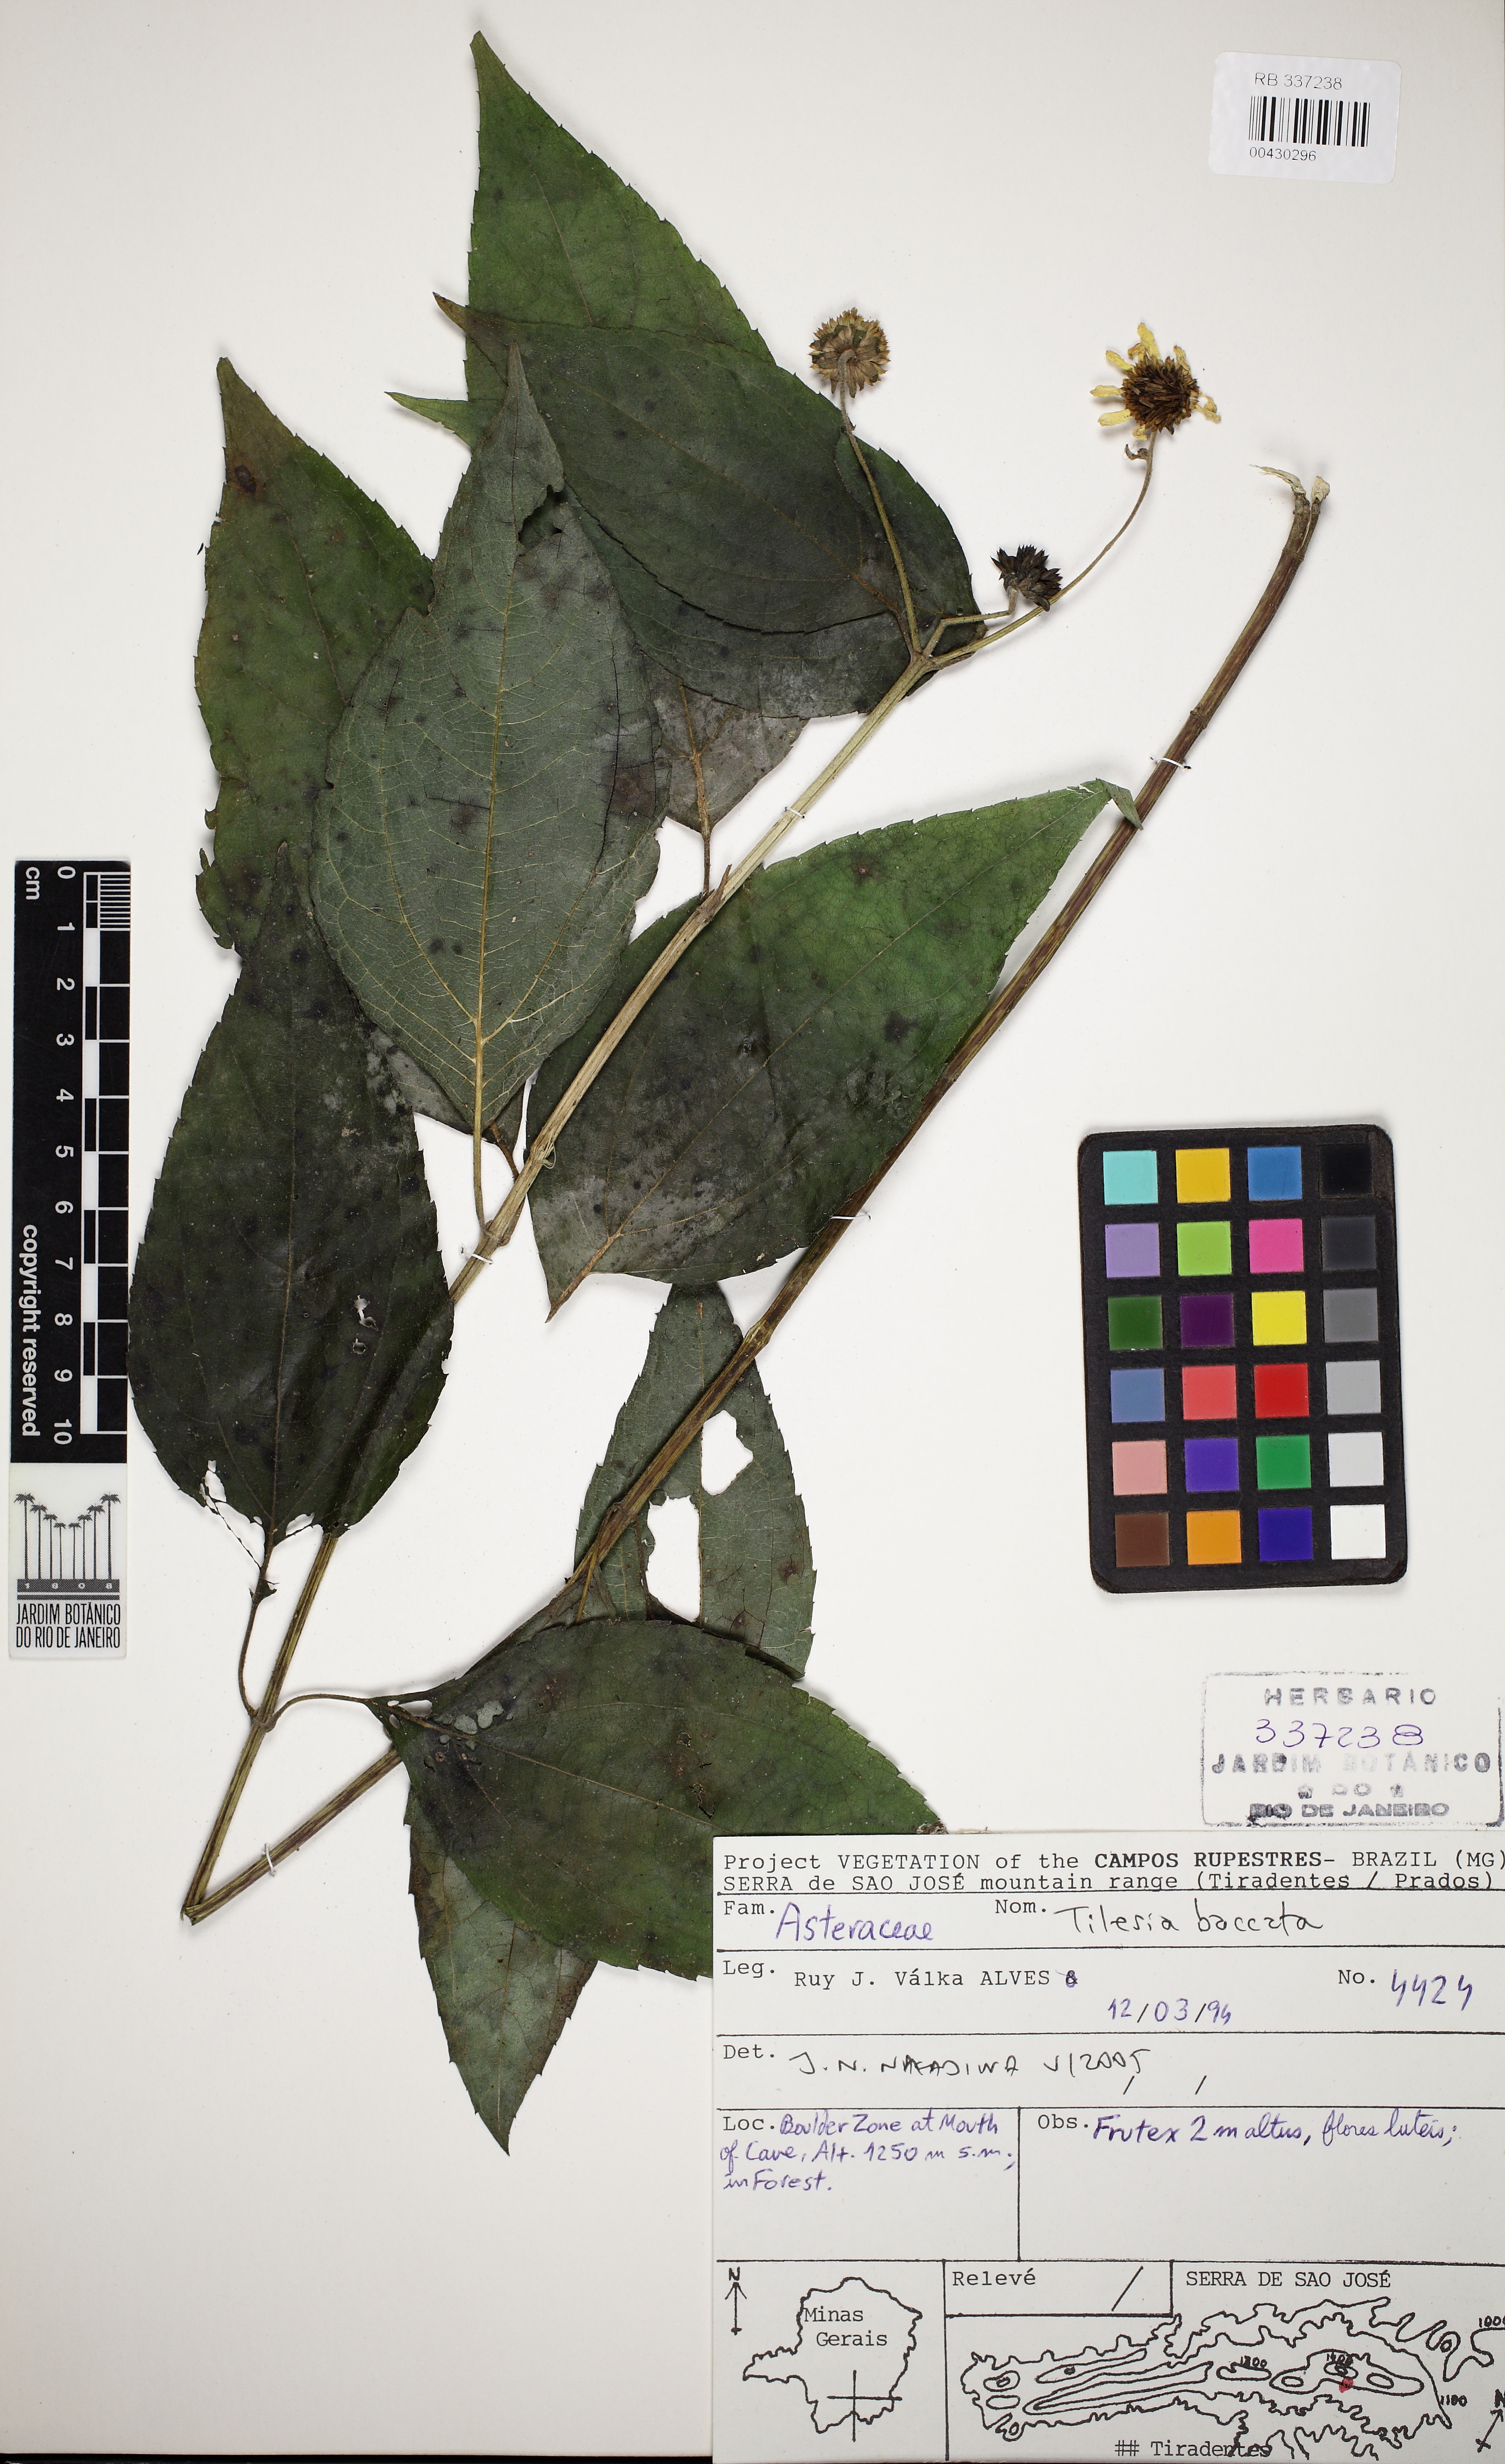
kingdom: Plantae
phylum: Tracheophyta
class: Magnoliopsida
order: Asterales
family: Asteraceae
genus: Tilesia
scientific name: Tilesia baccata
